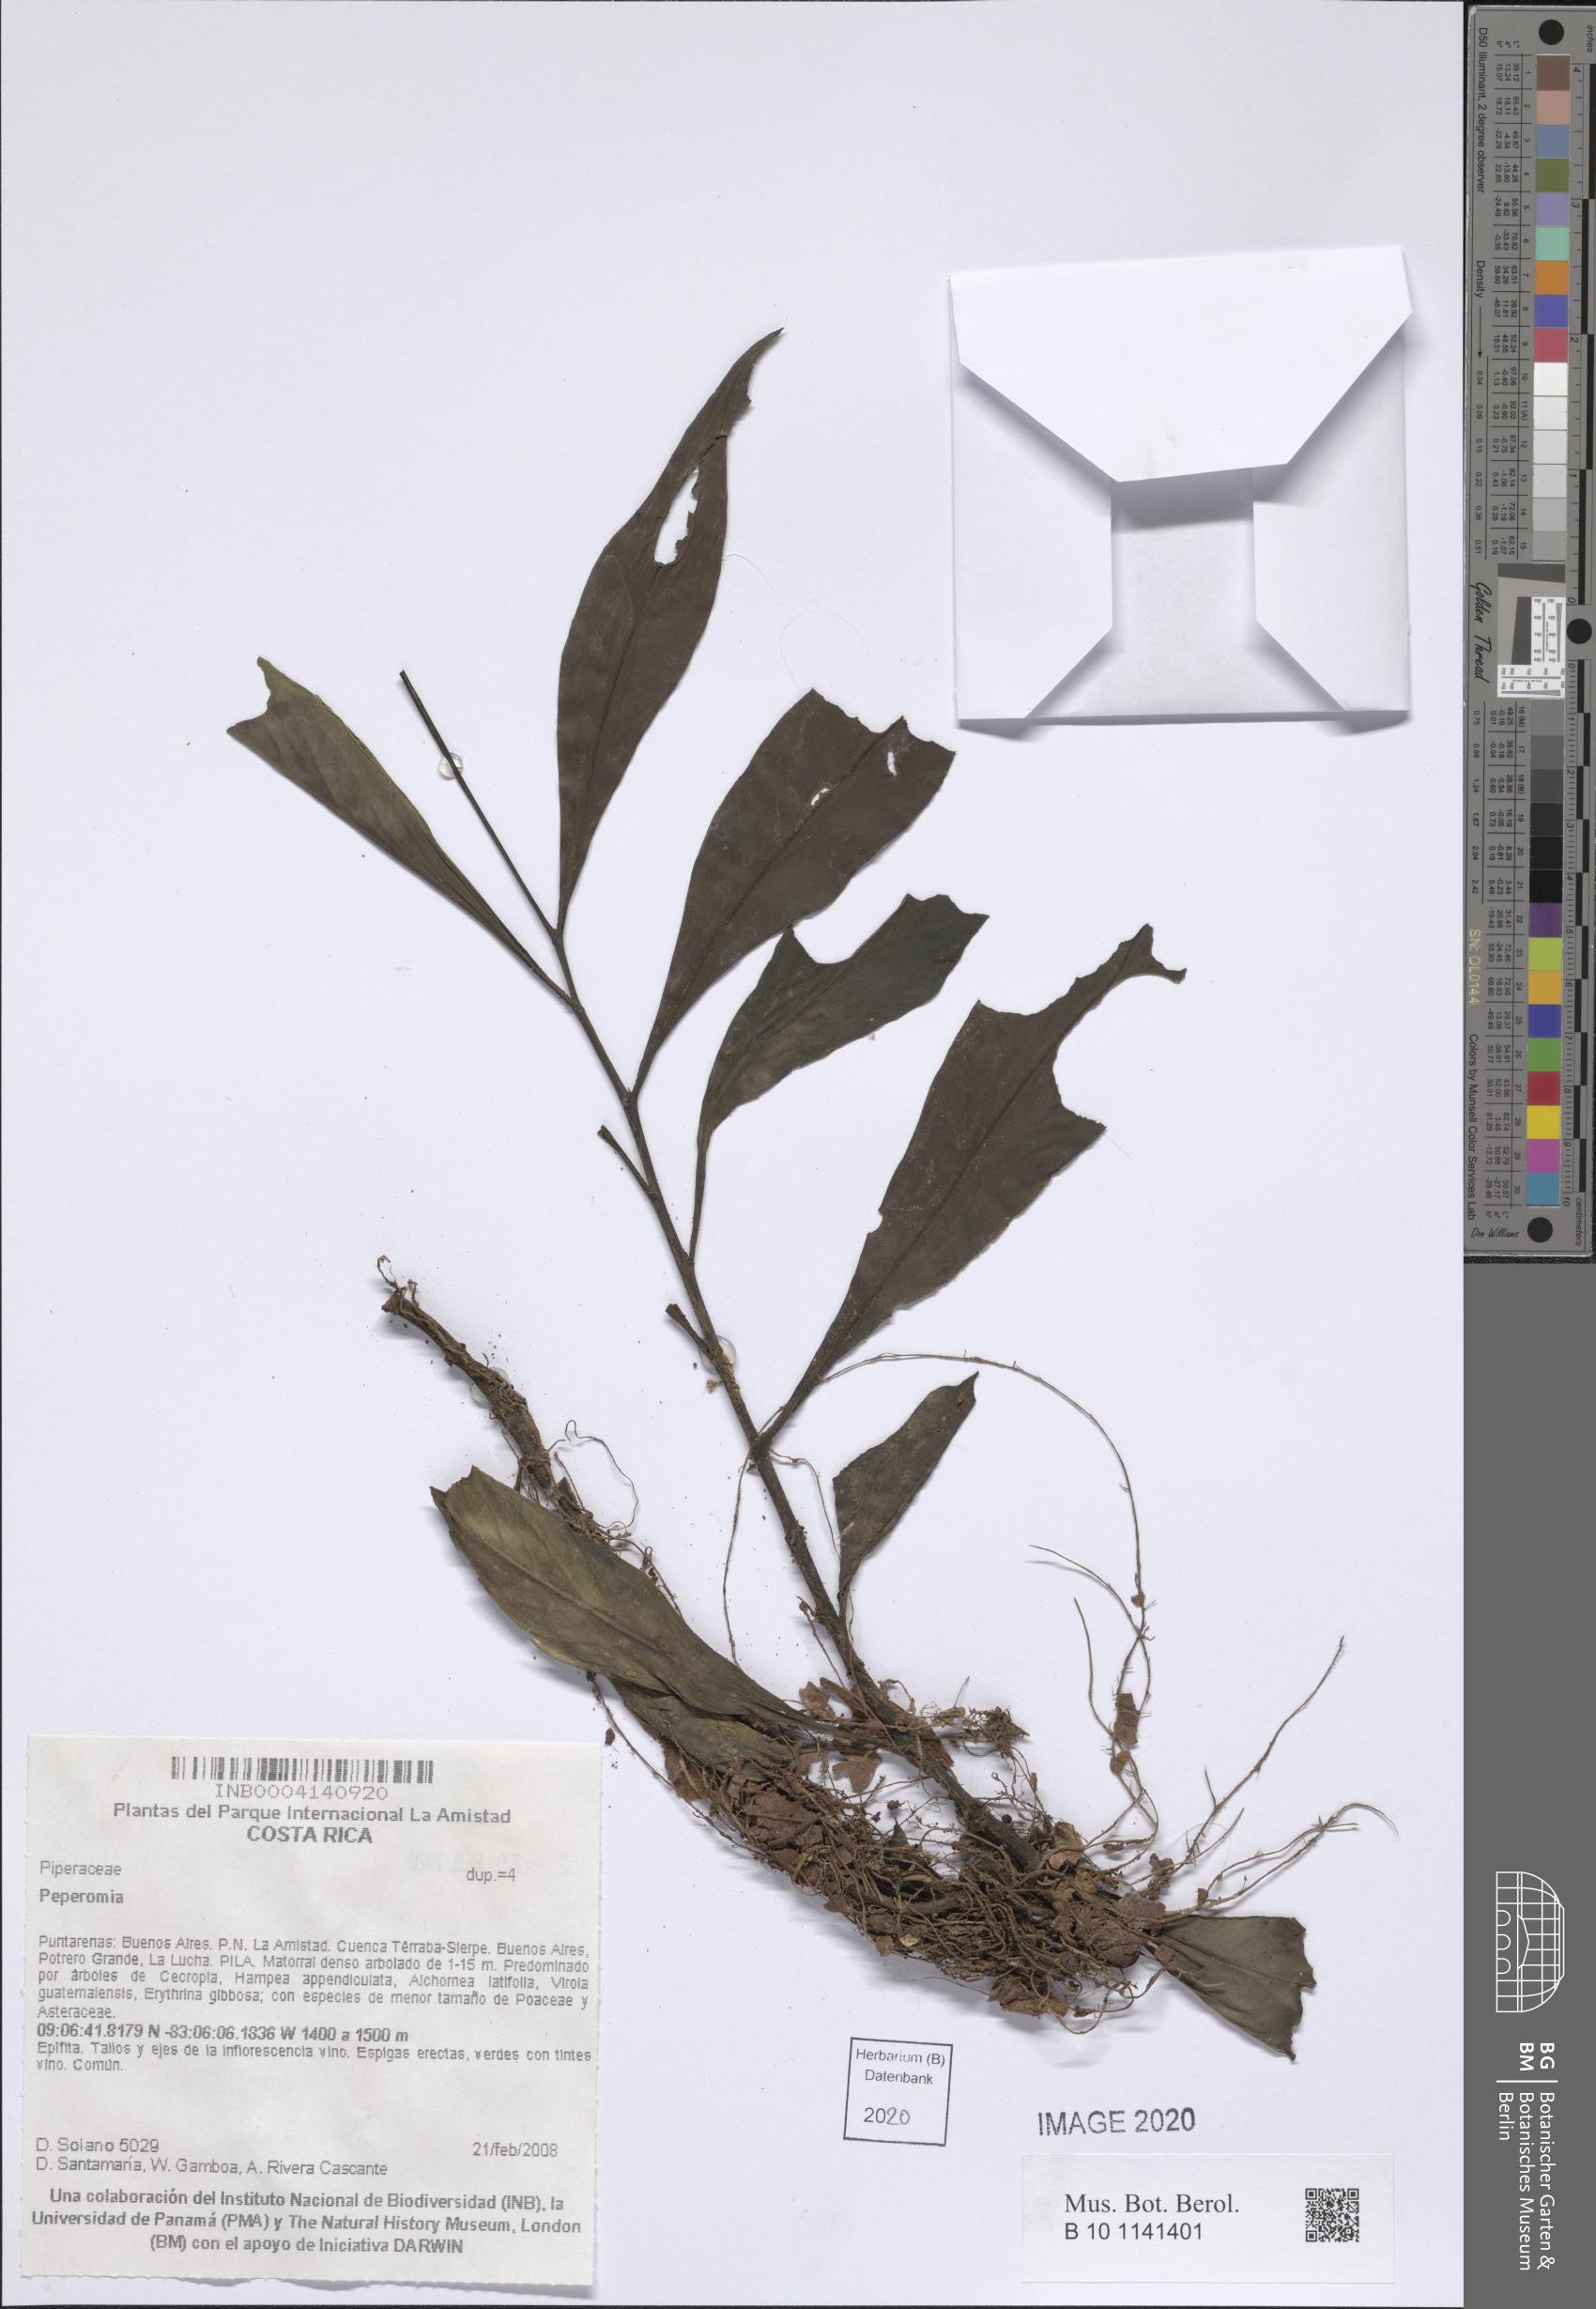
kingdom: Plantae
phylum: Tracheophyta
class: Magnoliopsida
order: Piperales
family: Piperaceae
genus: Peperomia
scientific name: Peperomia
